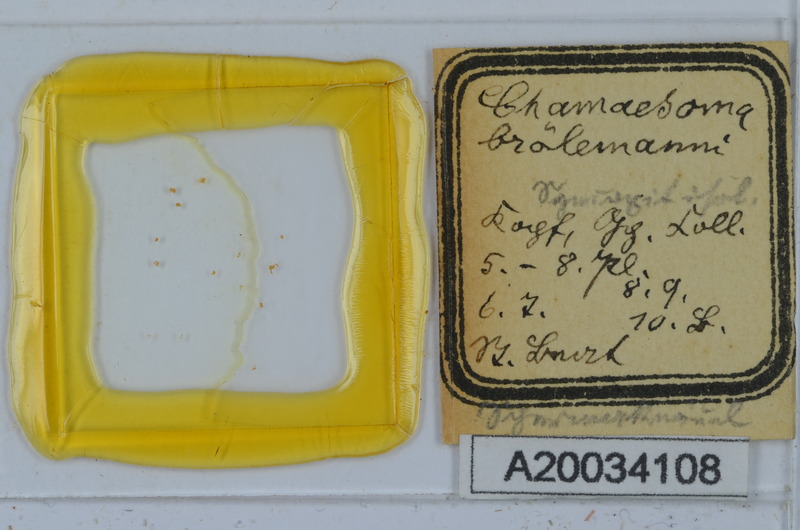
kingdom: Animalia
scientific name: Animalia
